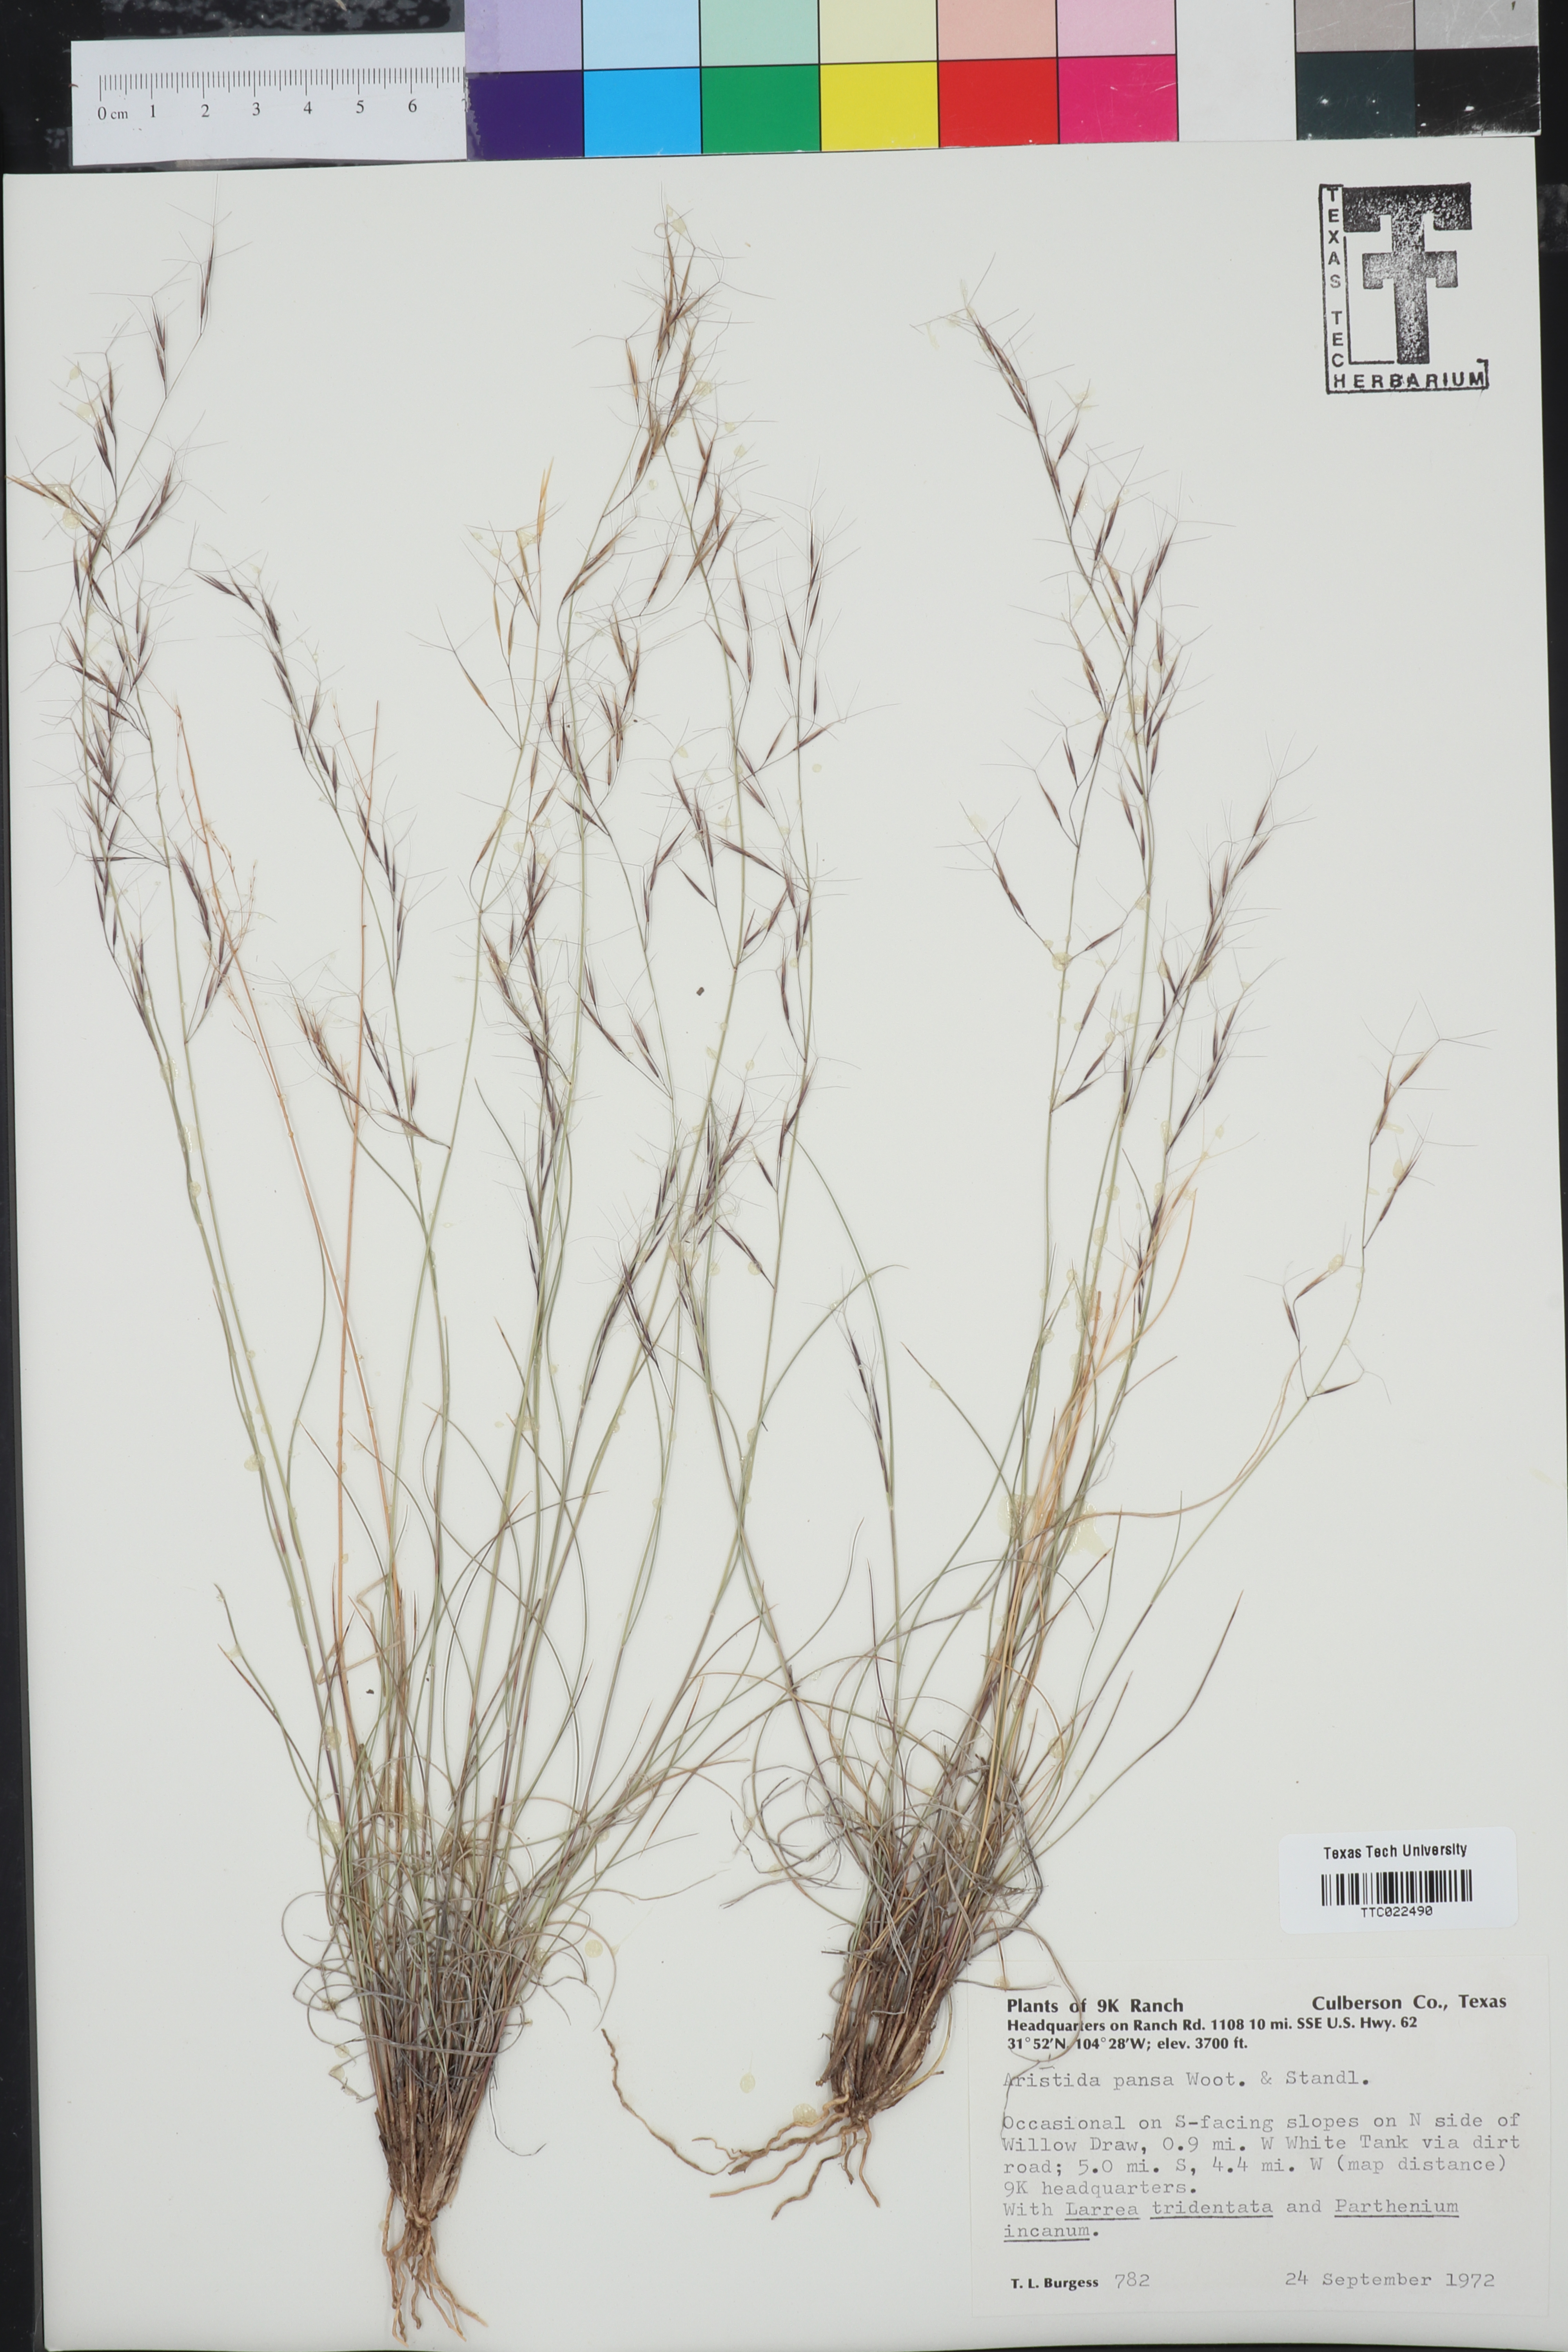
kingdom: Plantae
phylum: Tracheophyta
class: Liliopsida
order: Poales
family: Poaceae
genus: Aristida
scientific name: Aristida pansa
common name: Wooton's three-awn
